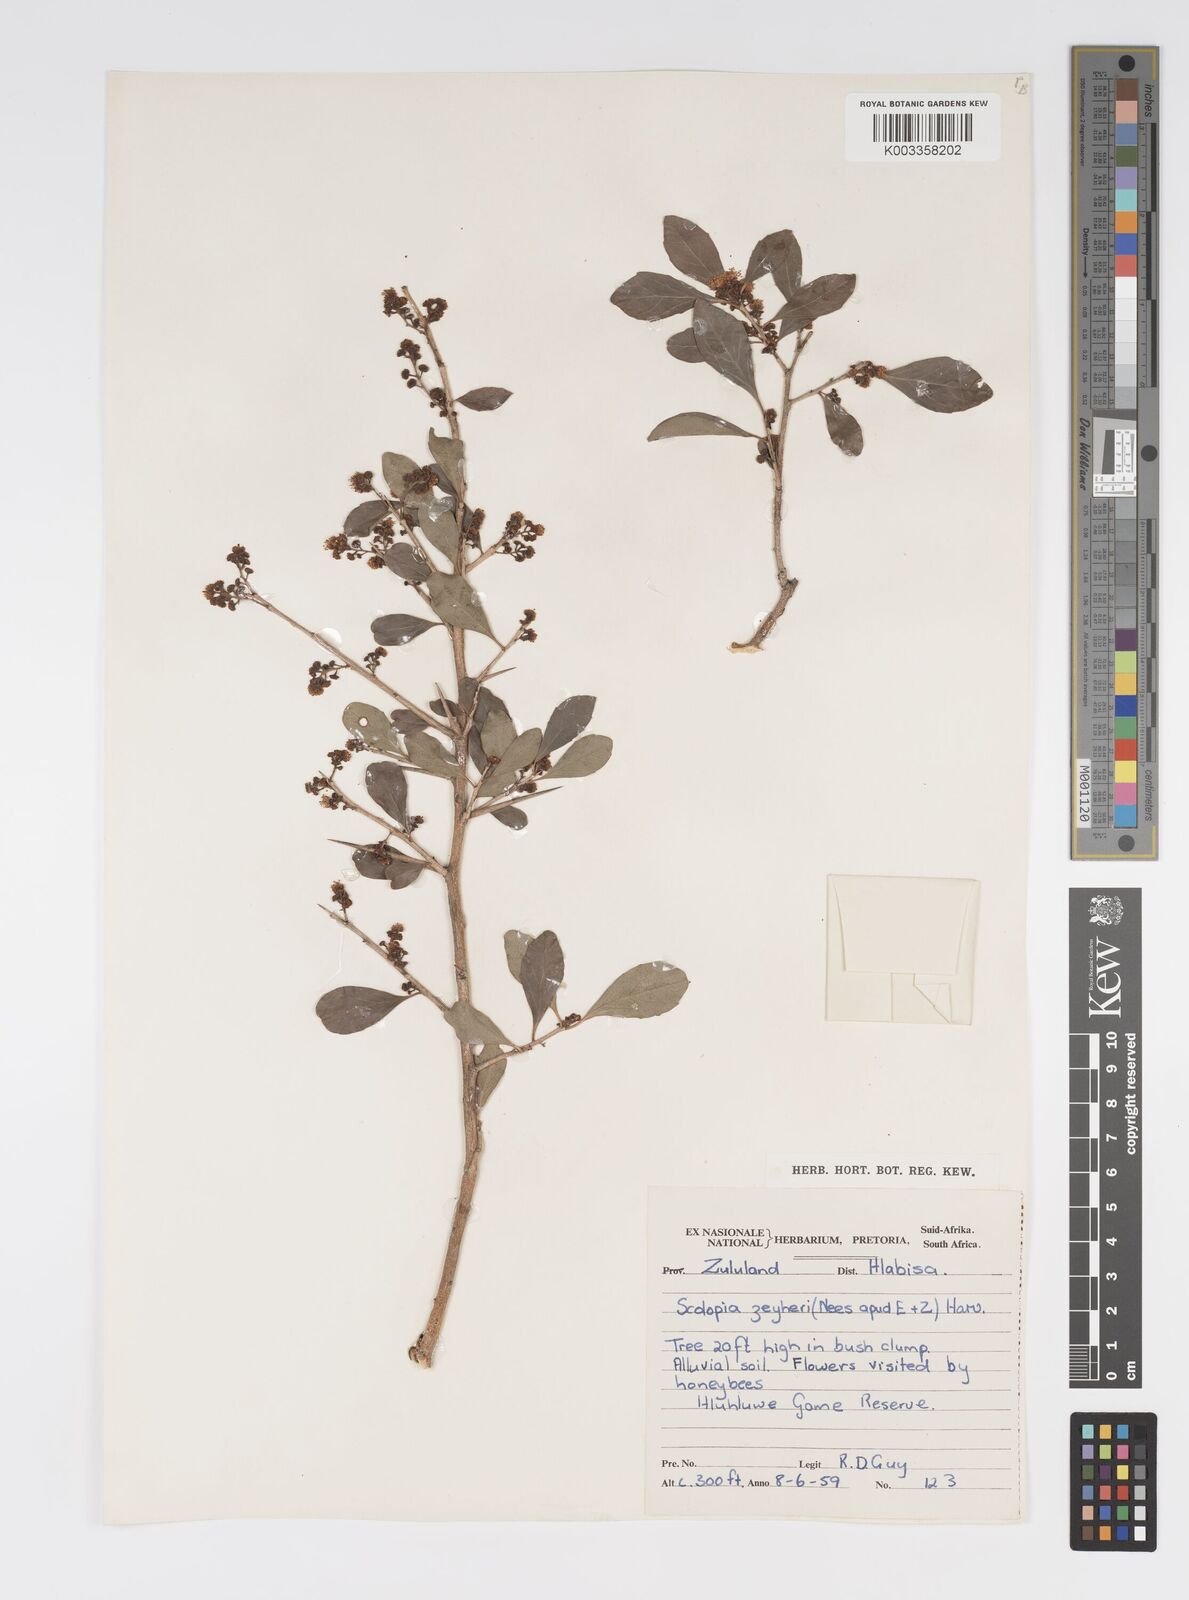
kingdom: Plantae
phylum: Tracheophyta
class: Magnoliopsida
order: Malpighiales
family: Salicaceae
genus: Scolopia
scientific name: Scolopia zeyheri
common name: Thorn pear
